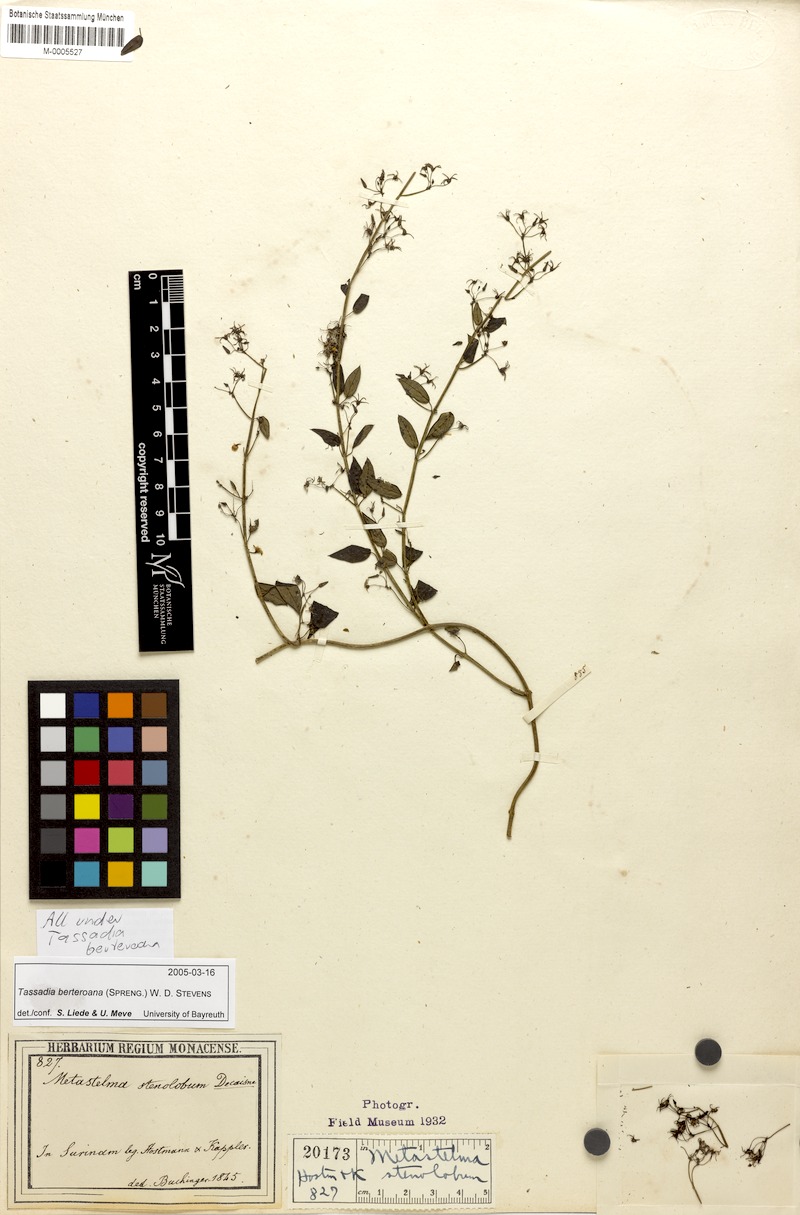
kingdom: Plantae
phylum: Tracheophyta
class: Magnoliopsida
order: Gentianales
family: Apocynaceae
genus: Tassadia
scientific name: Tassadia berteroana
